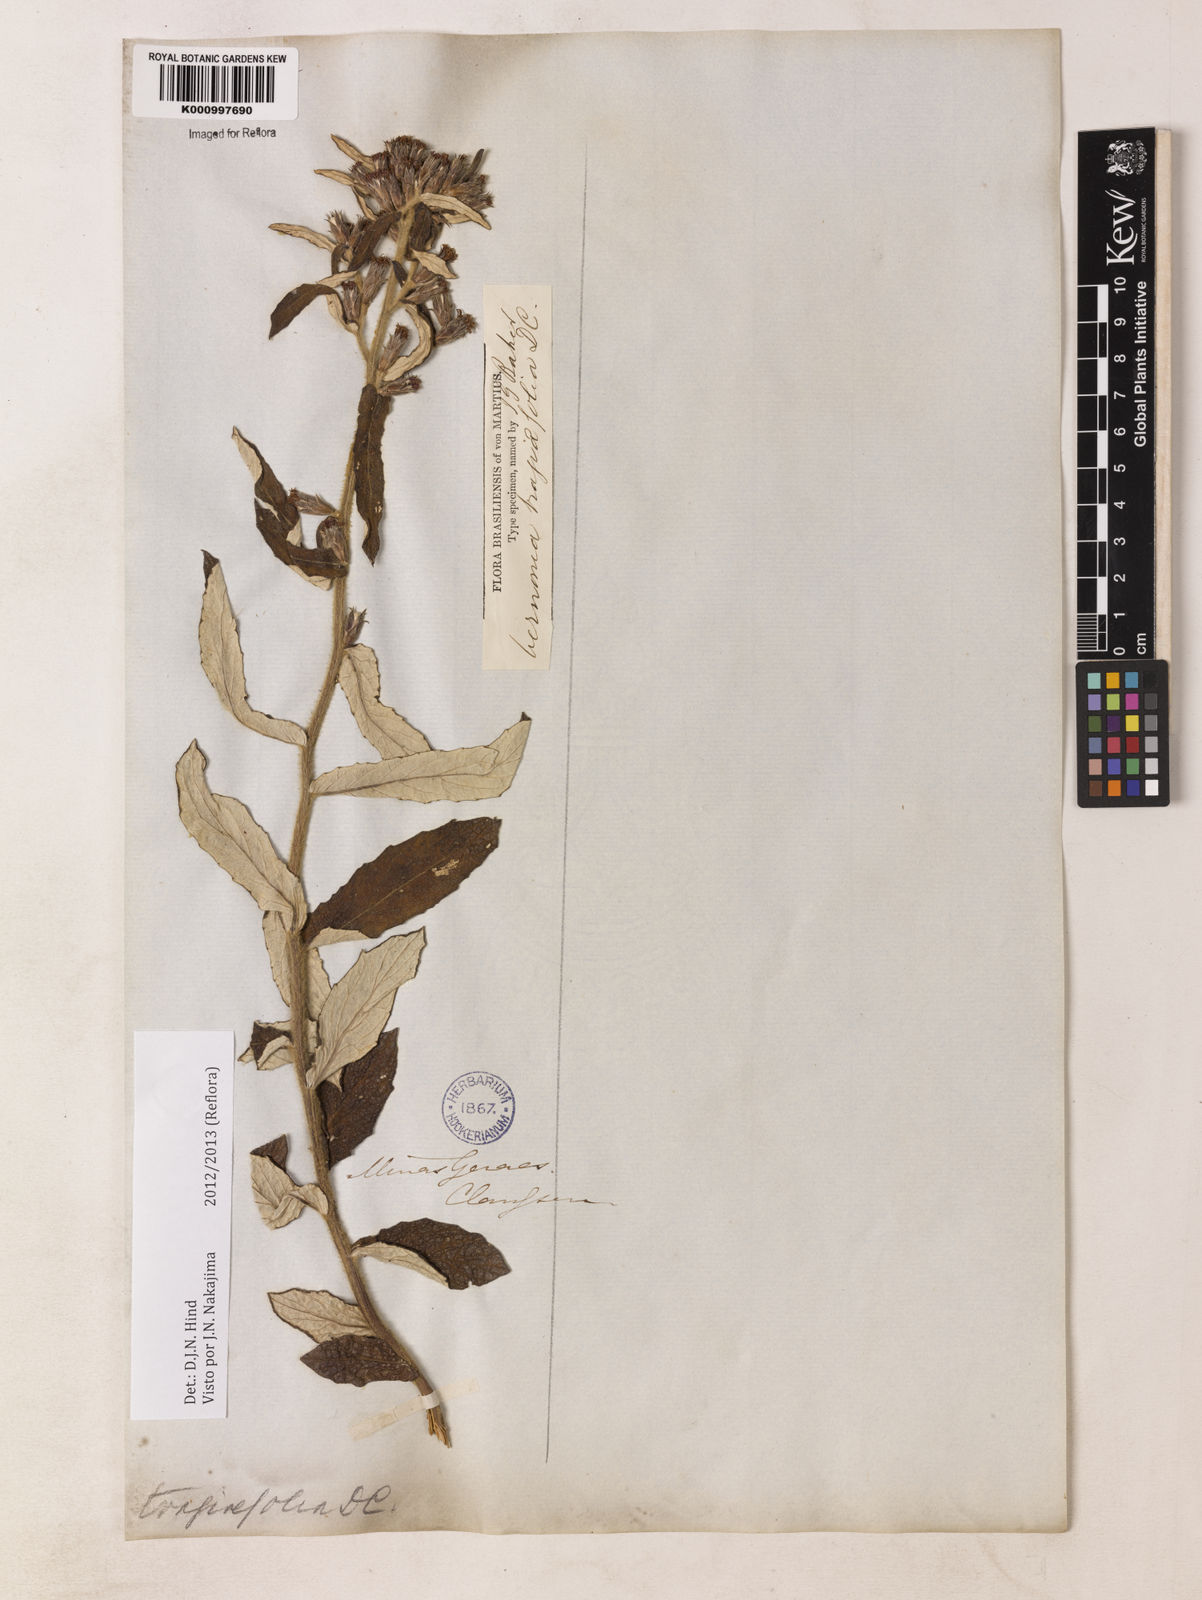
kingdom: Plantae
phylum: Tracheophyta
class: Magnoliopsida
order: Asterales
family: Asteraceae
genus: Vernonia
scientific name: Vernonia
